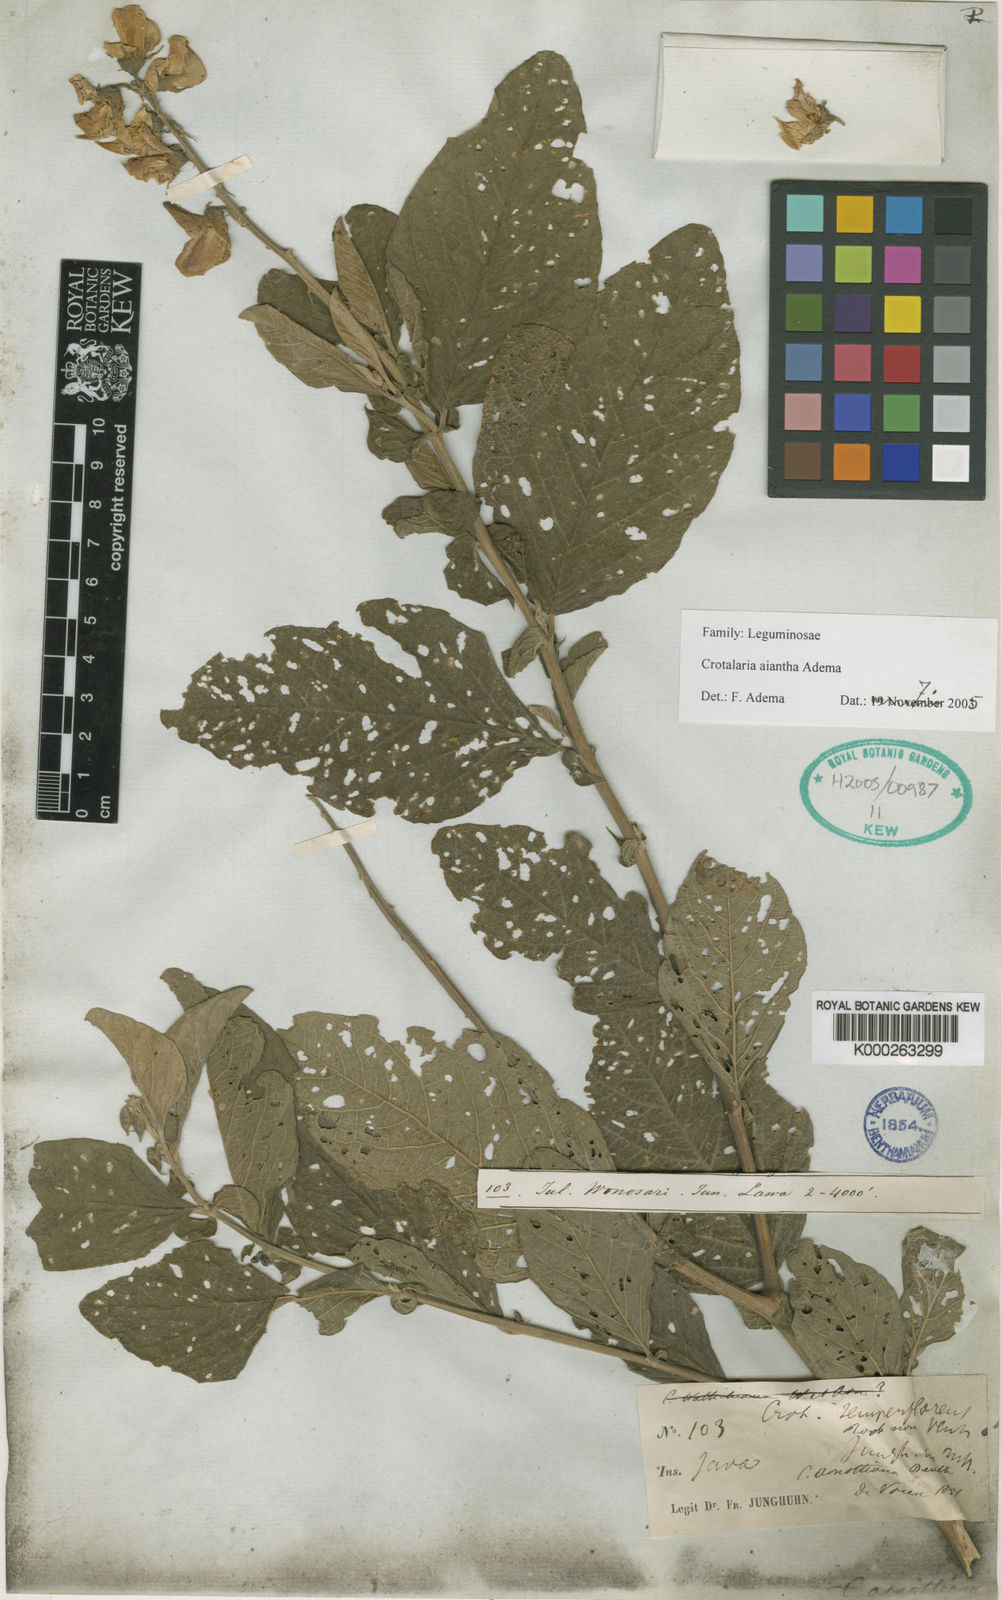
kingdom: Plantae
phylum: Tracheophyta
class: Magnoliopsida
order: Fabales
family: Fabaceae
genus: Crotalaria
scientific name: Crotalaria aiantha
